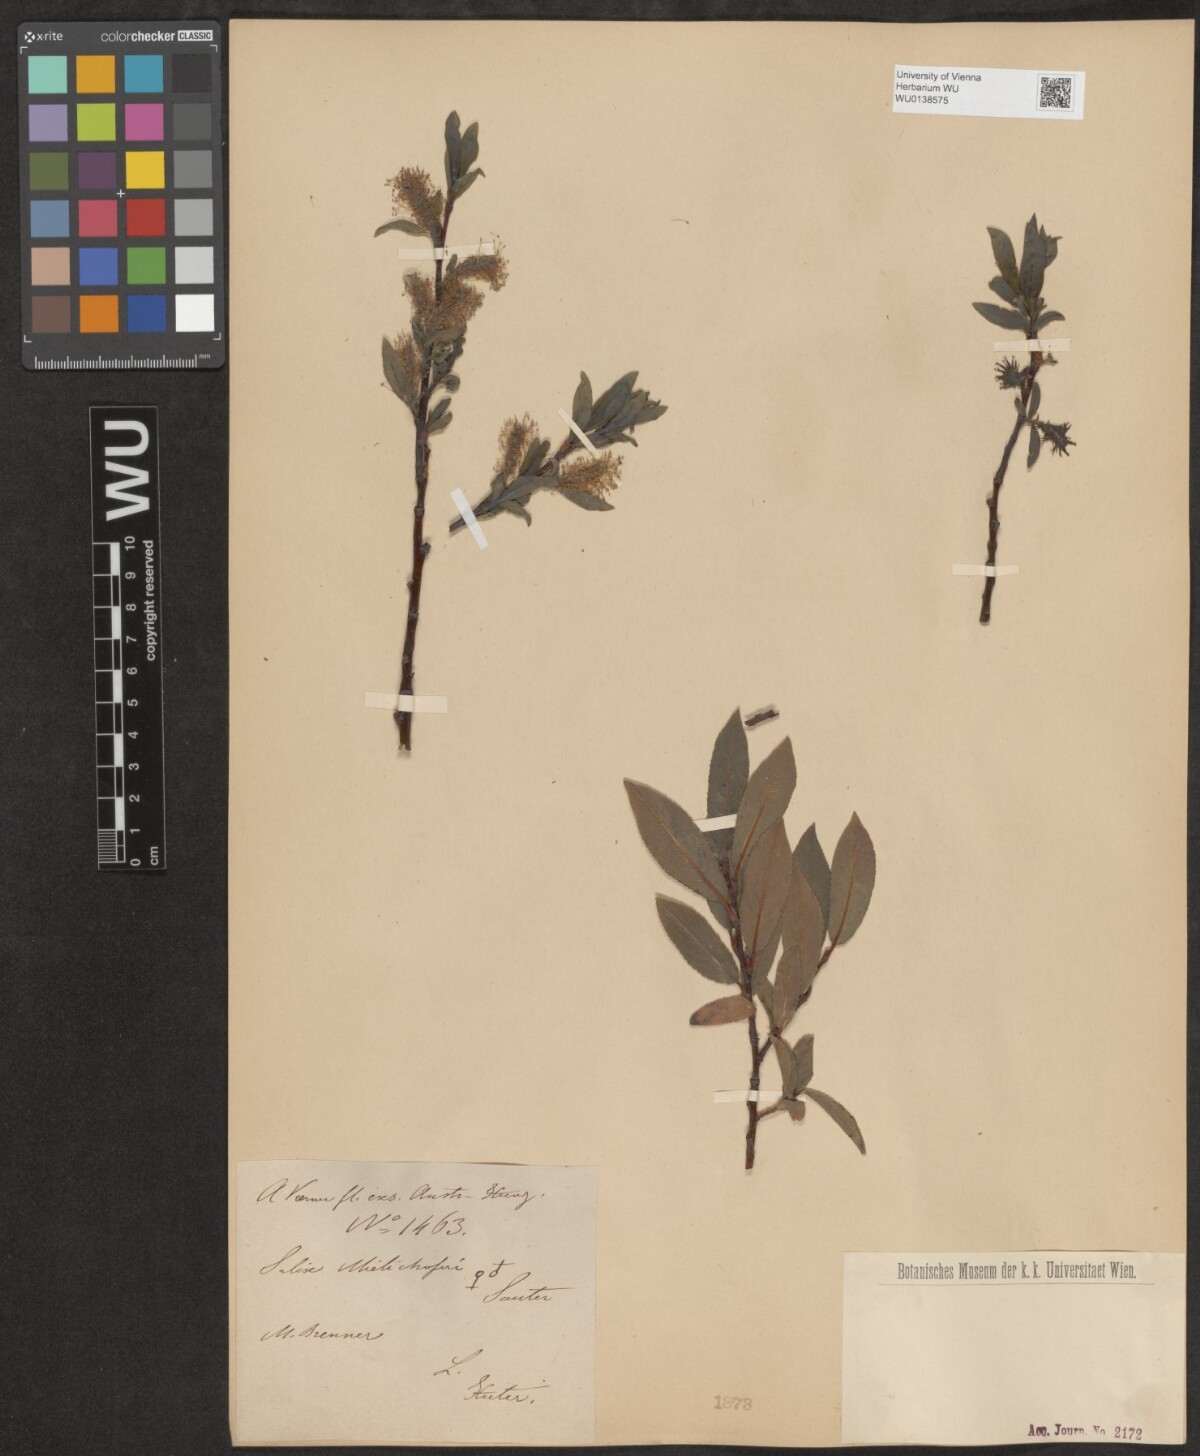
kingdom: Plantae
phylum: Tracheophyta
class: Magnoliopsida
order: Malpighiales
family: Salicaceae
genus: Salix
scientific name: Salix mielichhoferi
